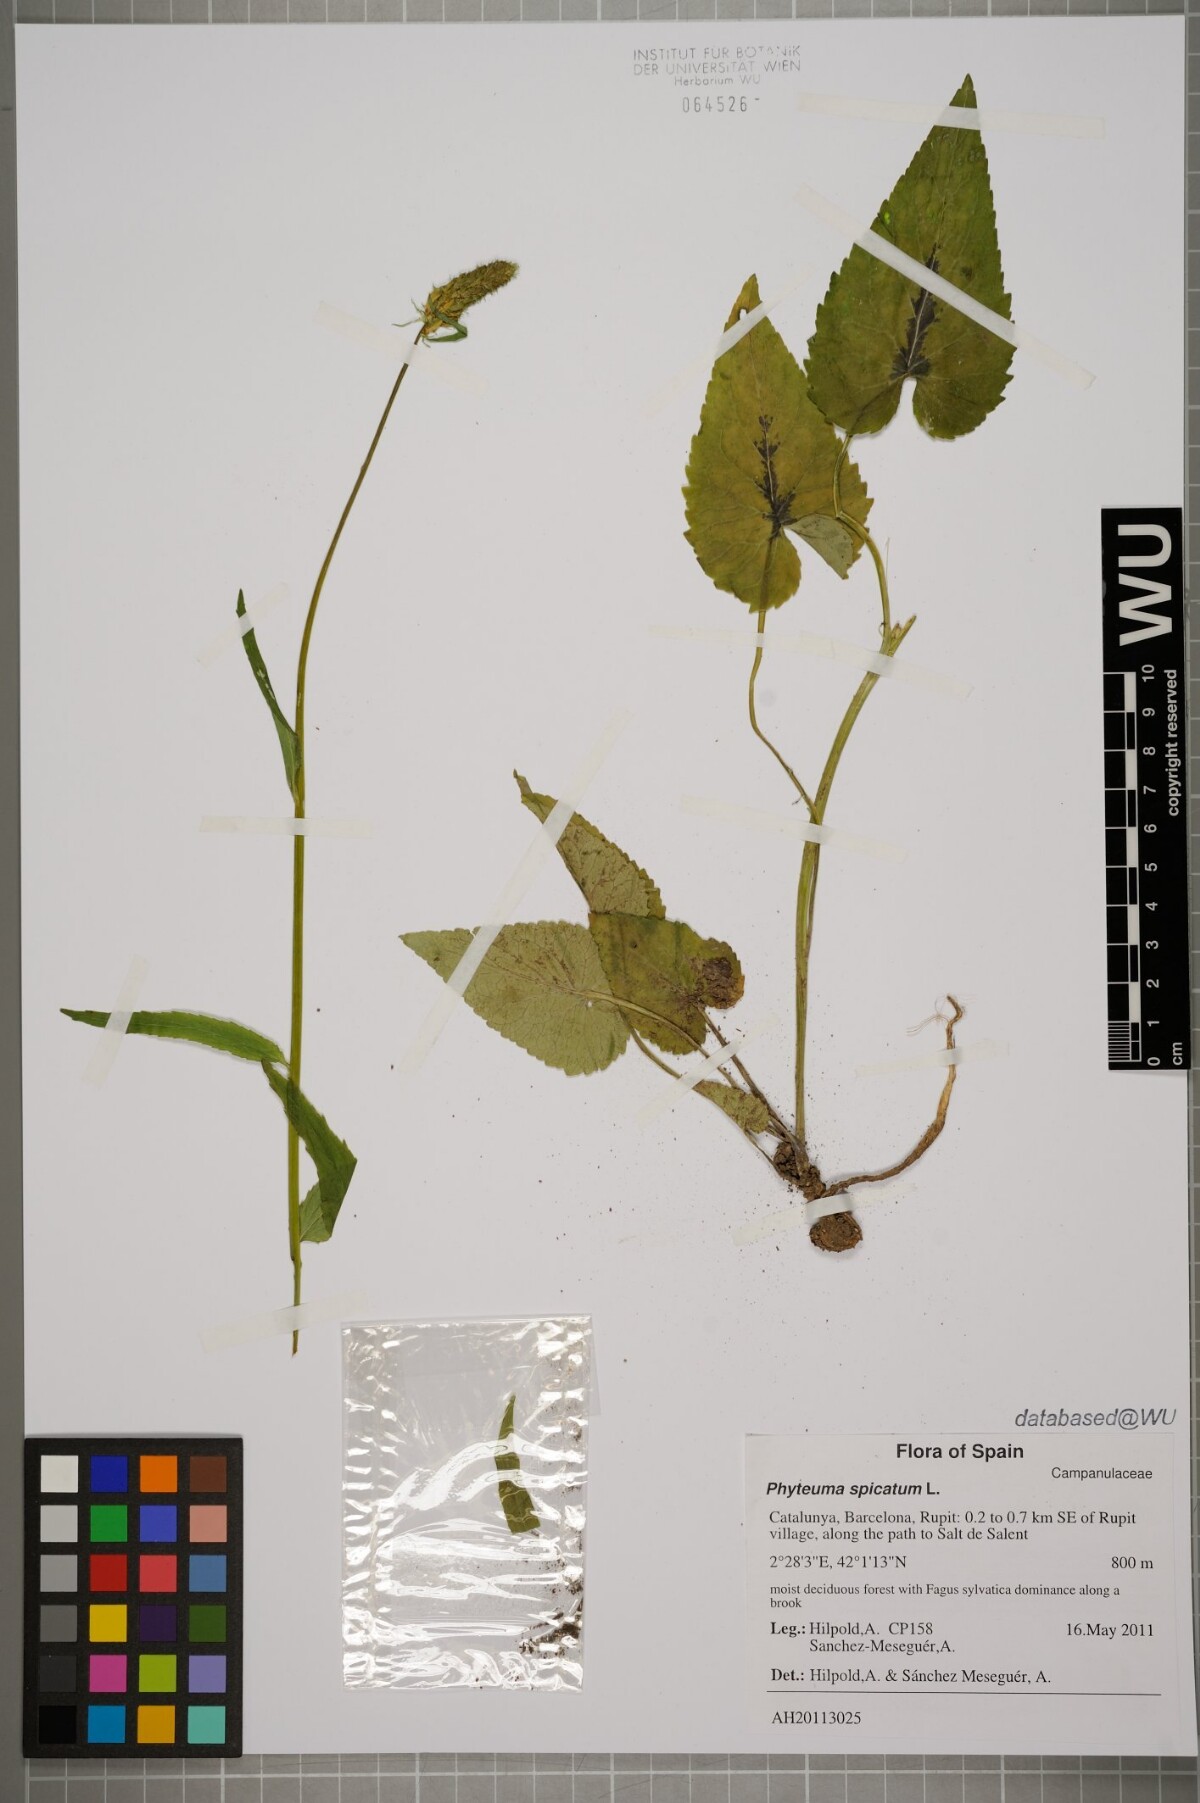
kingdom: Plantae
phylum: Tracheophyta
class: Magnoliopsida
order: Asterales
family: Campanulaceae
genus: Phyteuma
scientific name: Phyteuma spicatum
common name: Spiked rampion
